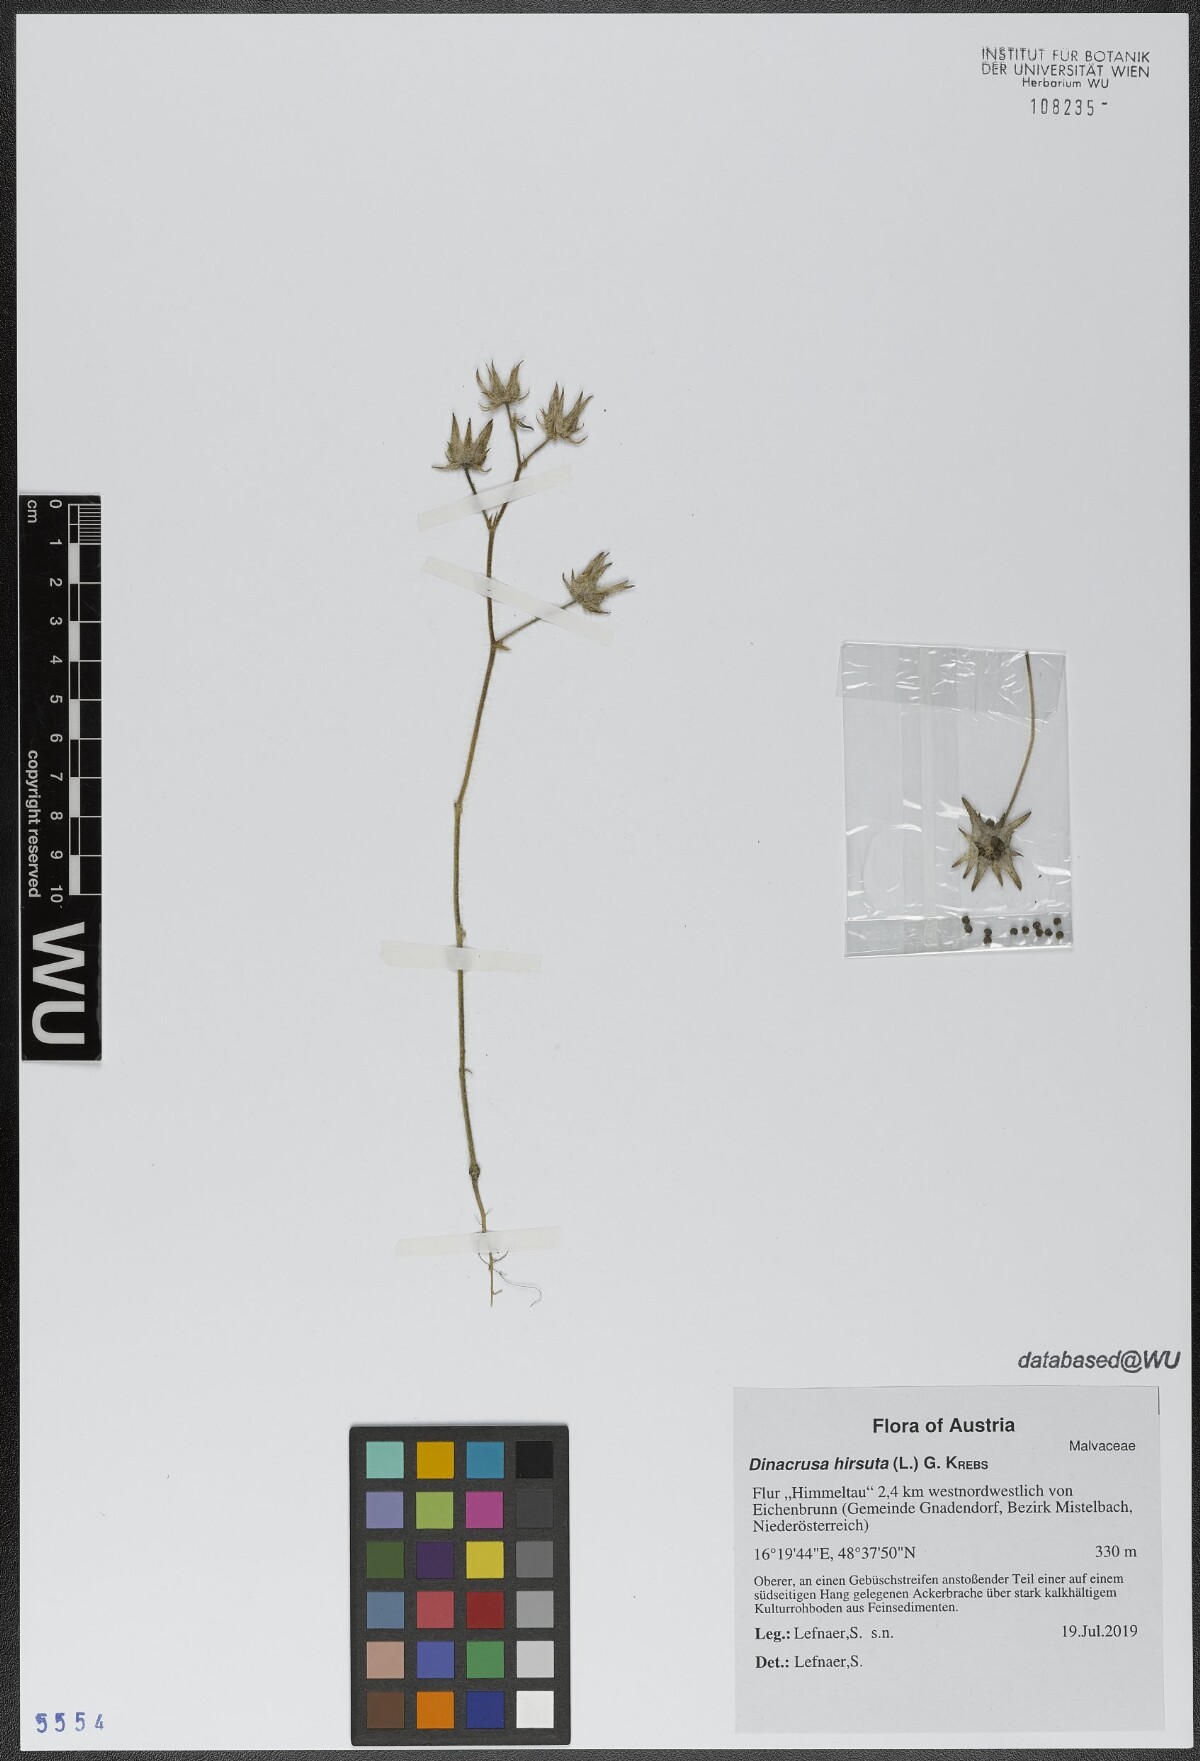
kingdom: Plantae
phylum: Tracheophyta
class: Magnoliopsida
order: Malvales
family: Malvaceae
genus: Althaea
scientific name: Althaea hirsuta
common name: Rough marsh-mallow
